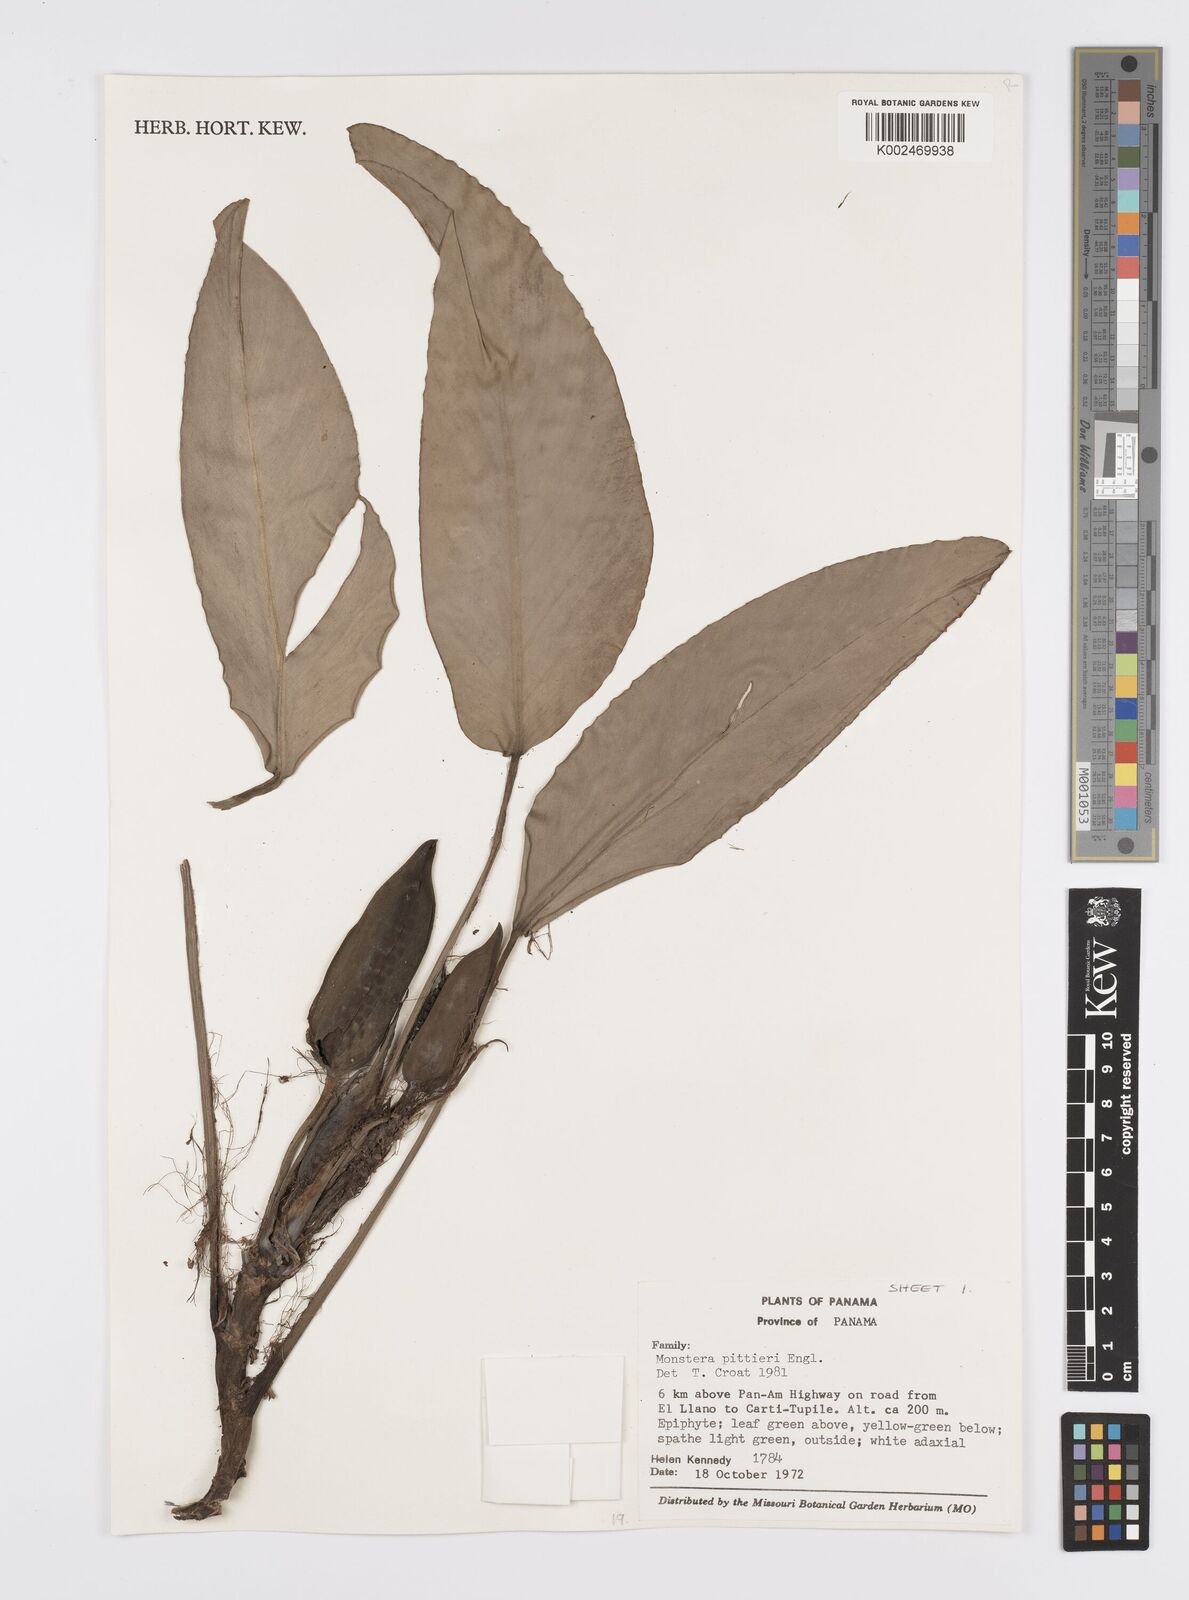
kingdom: Plantae
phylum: Tracheophyta
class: Liliopsida
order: Alismatales
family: Araceae
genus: Monstera
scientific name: Monstera pittieri
